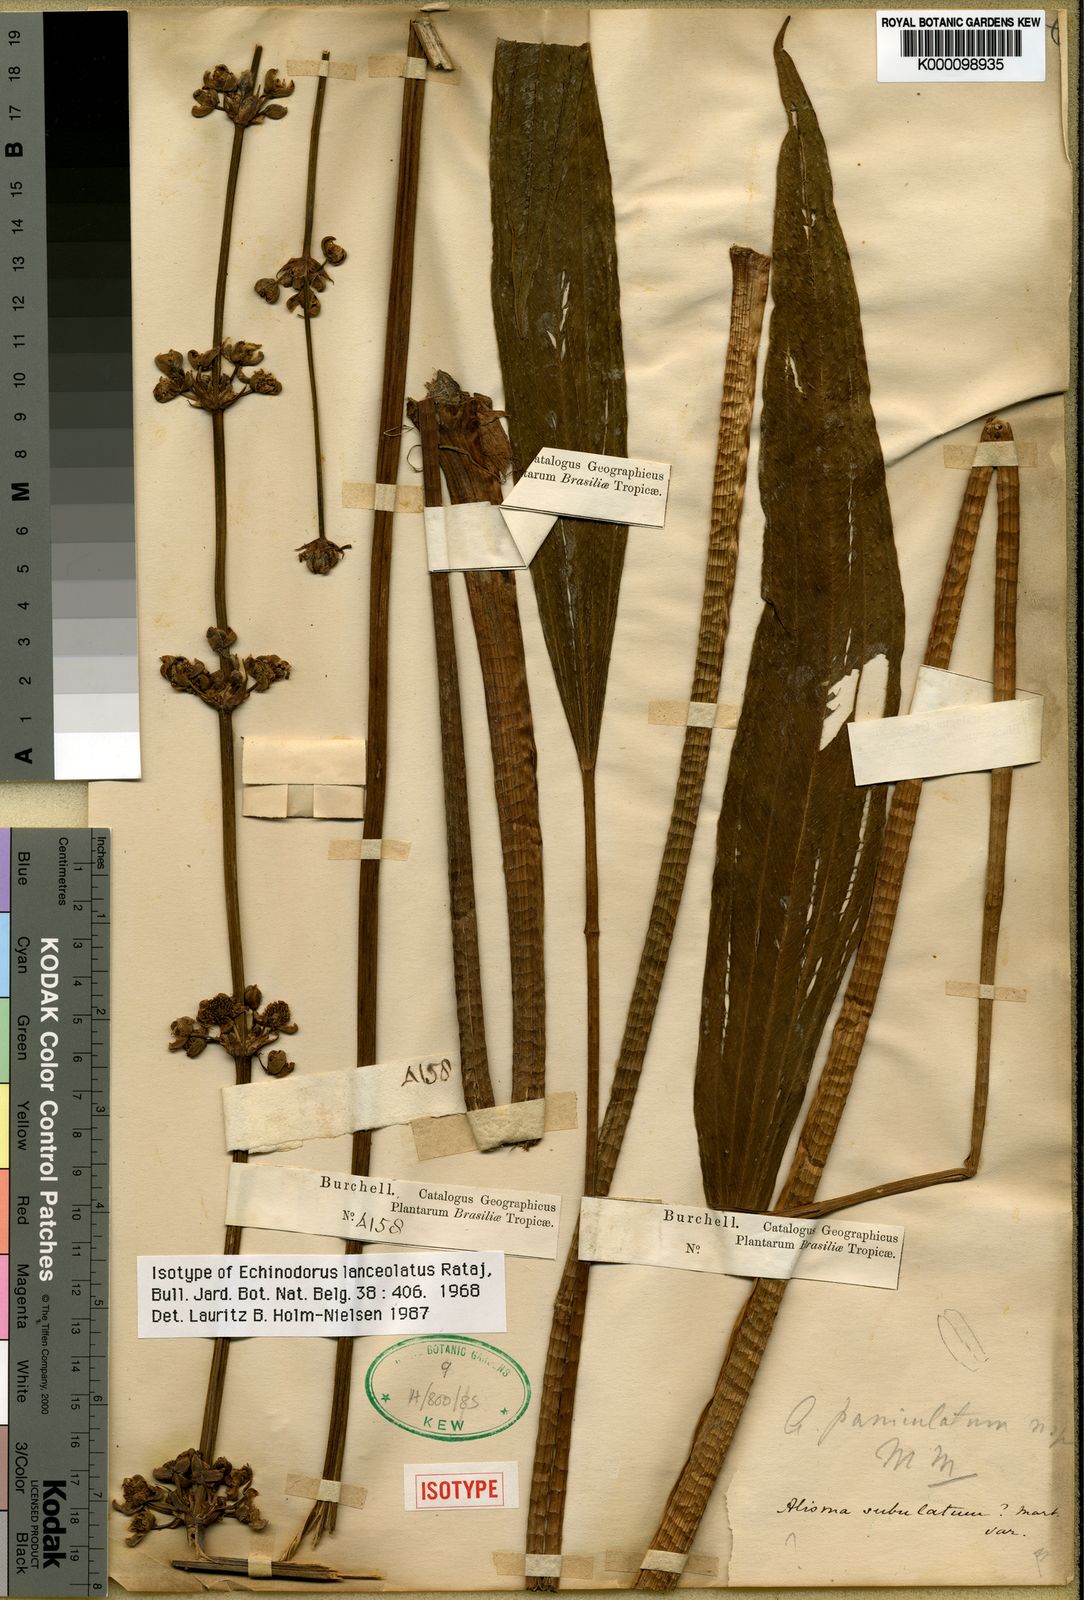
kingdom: Plantae
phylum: Tracheophyta
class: Liliopsida
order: Alismatales
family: Alismataceae
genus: Aquarius
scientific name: Aquarius lanceolatus
